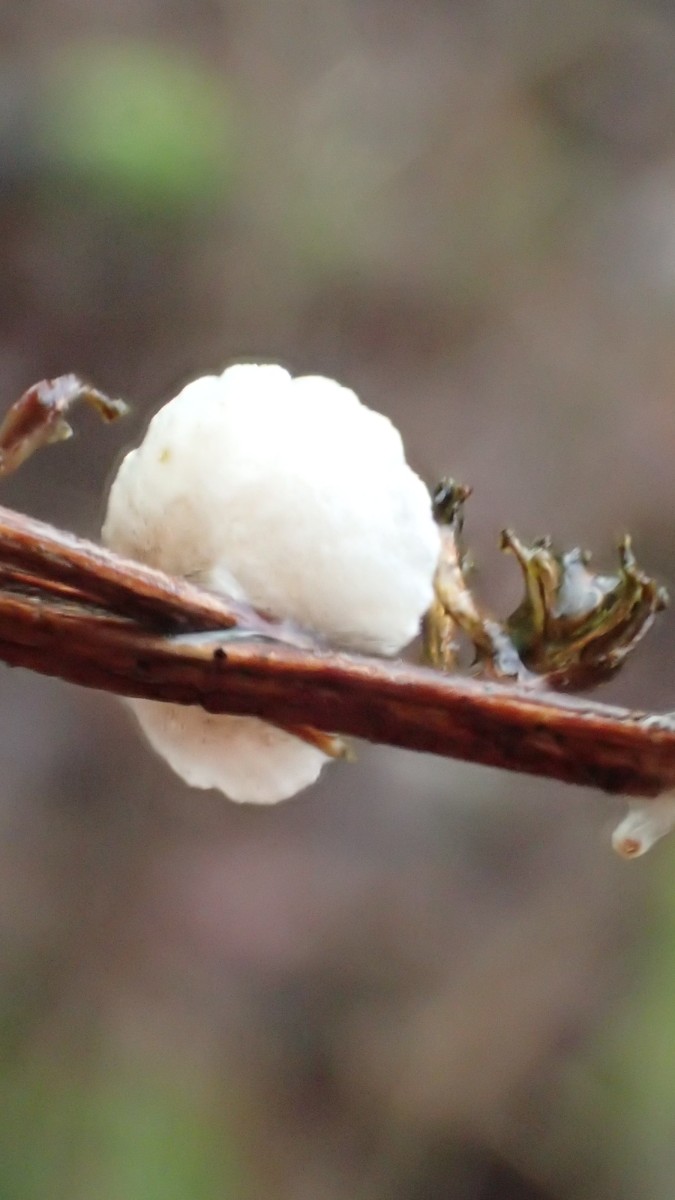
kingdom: Fungi
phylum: Basidiomycota
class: Agaricomycetes
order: Agaricales
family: Crepidotaceae
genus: Crepidotus
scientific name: Crepidotus cesatii
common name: almindelig muslingesvamp
